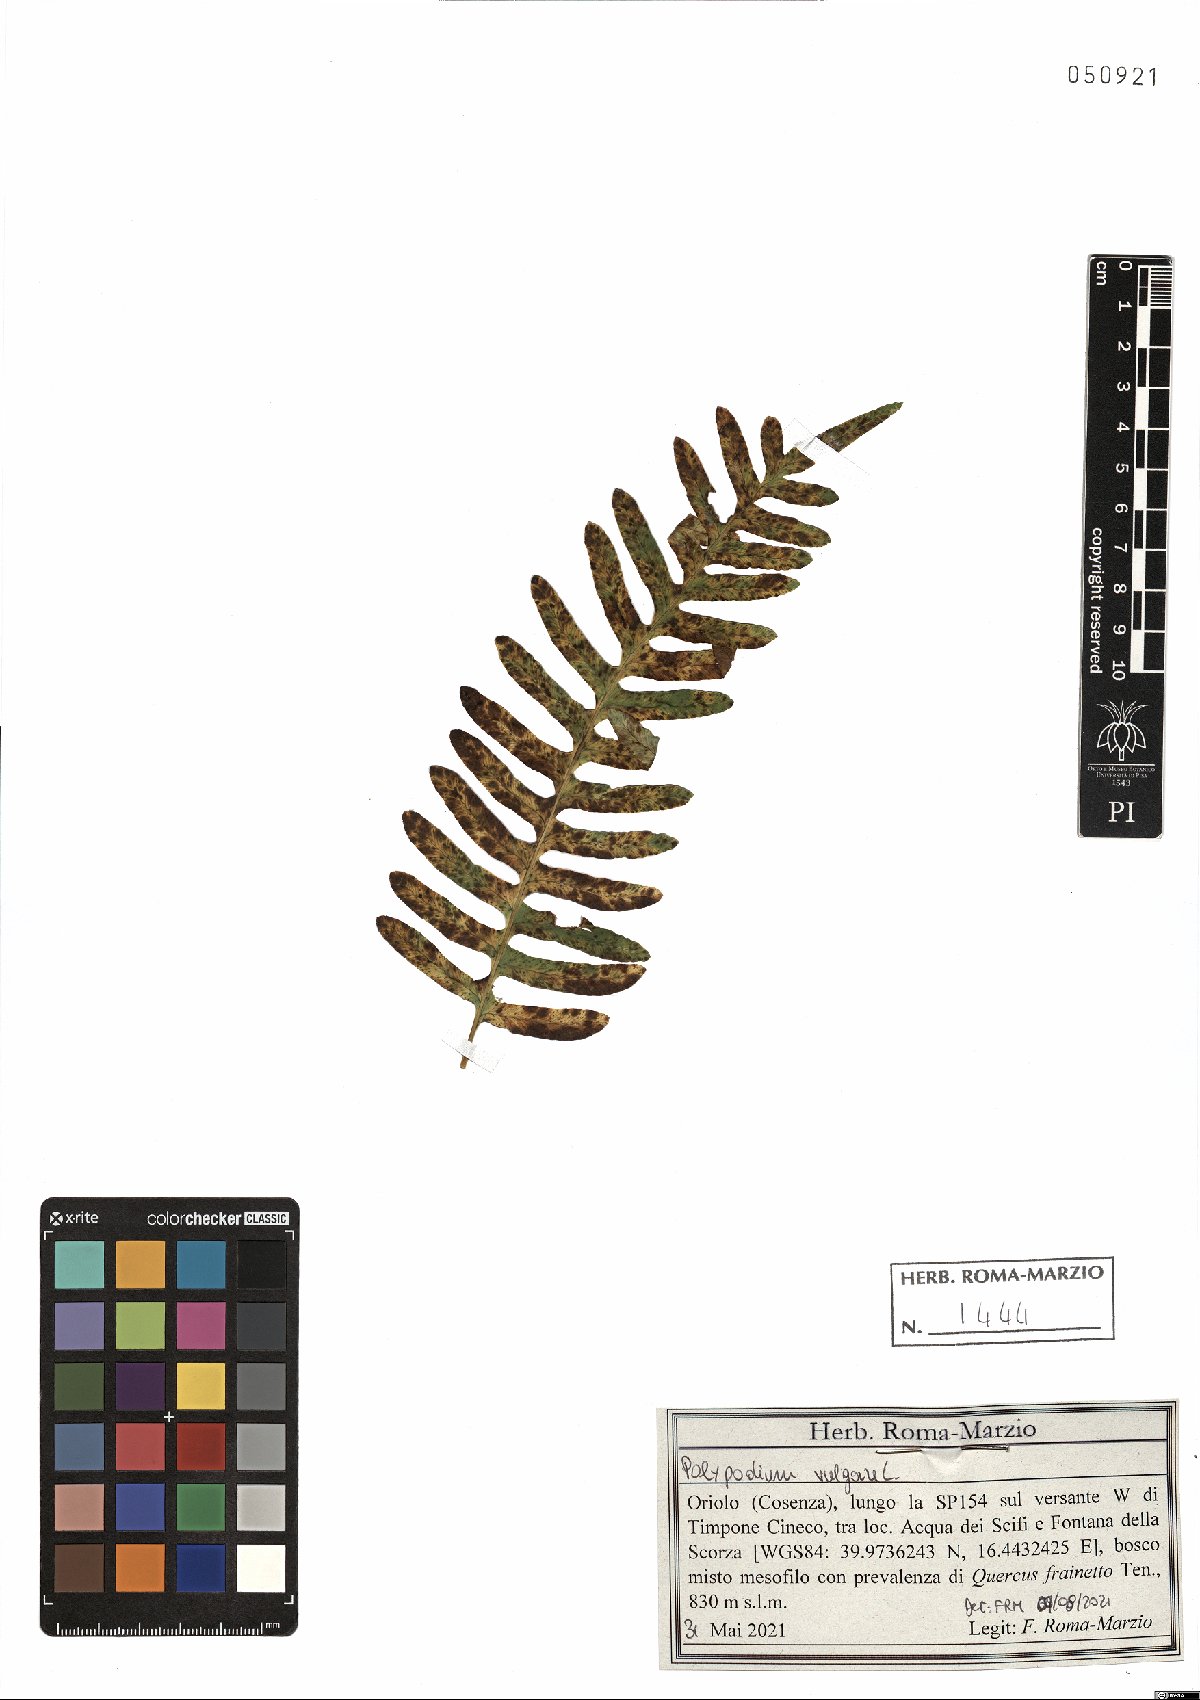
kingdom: Plantae
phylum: Tracheophyta
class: Polypodiopsida
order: Polypodiales
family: Polypodiaceae
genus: Polypodium
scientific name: Polypodium vulgare
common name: Common polypody
